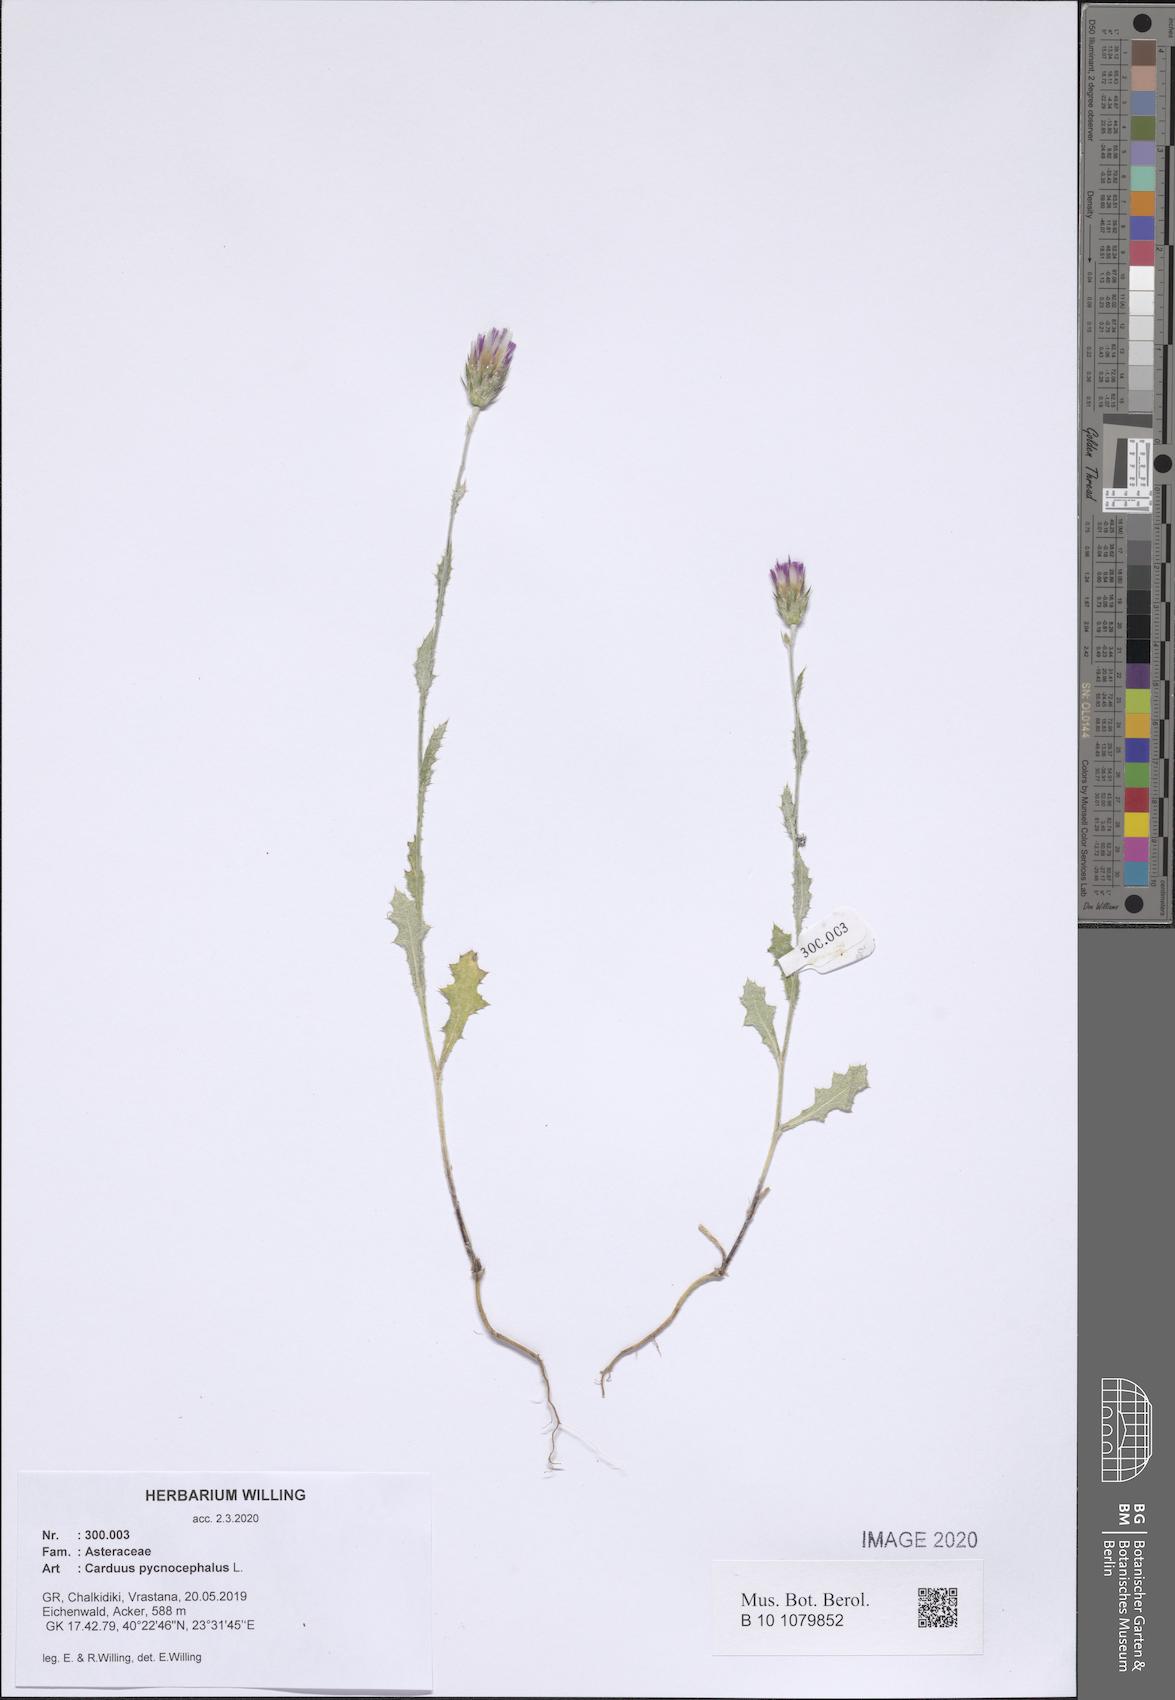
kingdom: Plantae
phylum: Tracheophyta
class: Magnoliopsida
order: Asterales
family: Asteraceae
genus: Carduus
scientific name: Carduus pycnocephalus
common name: Plymouth thistle
